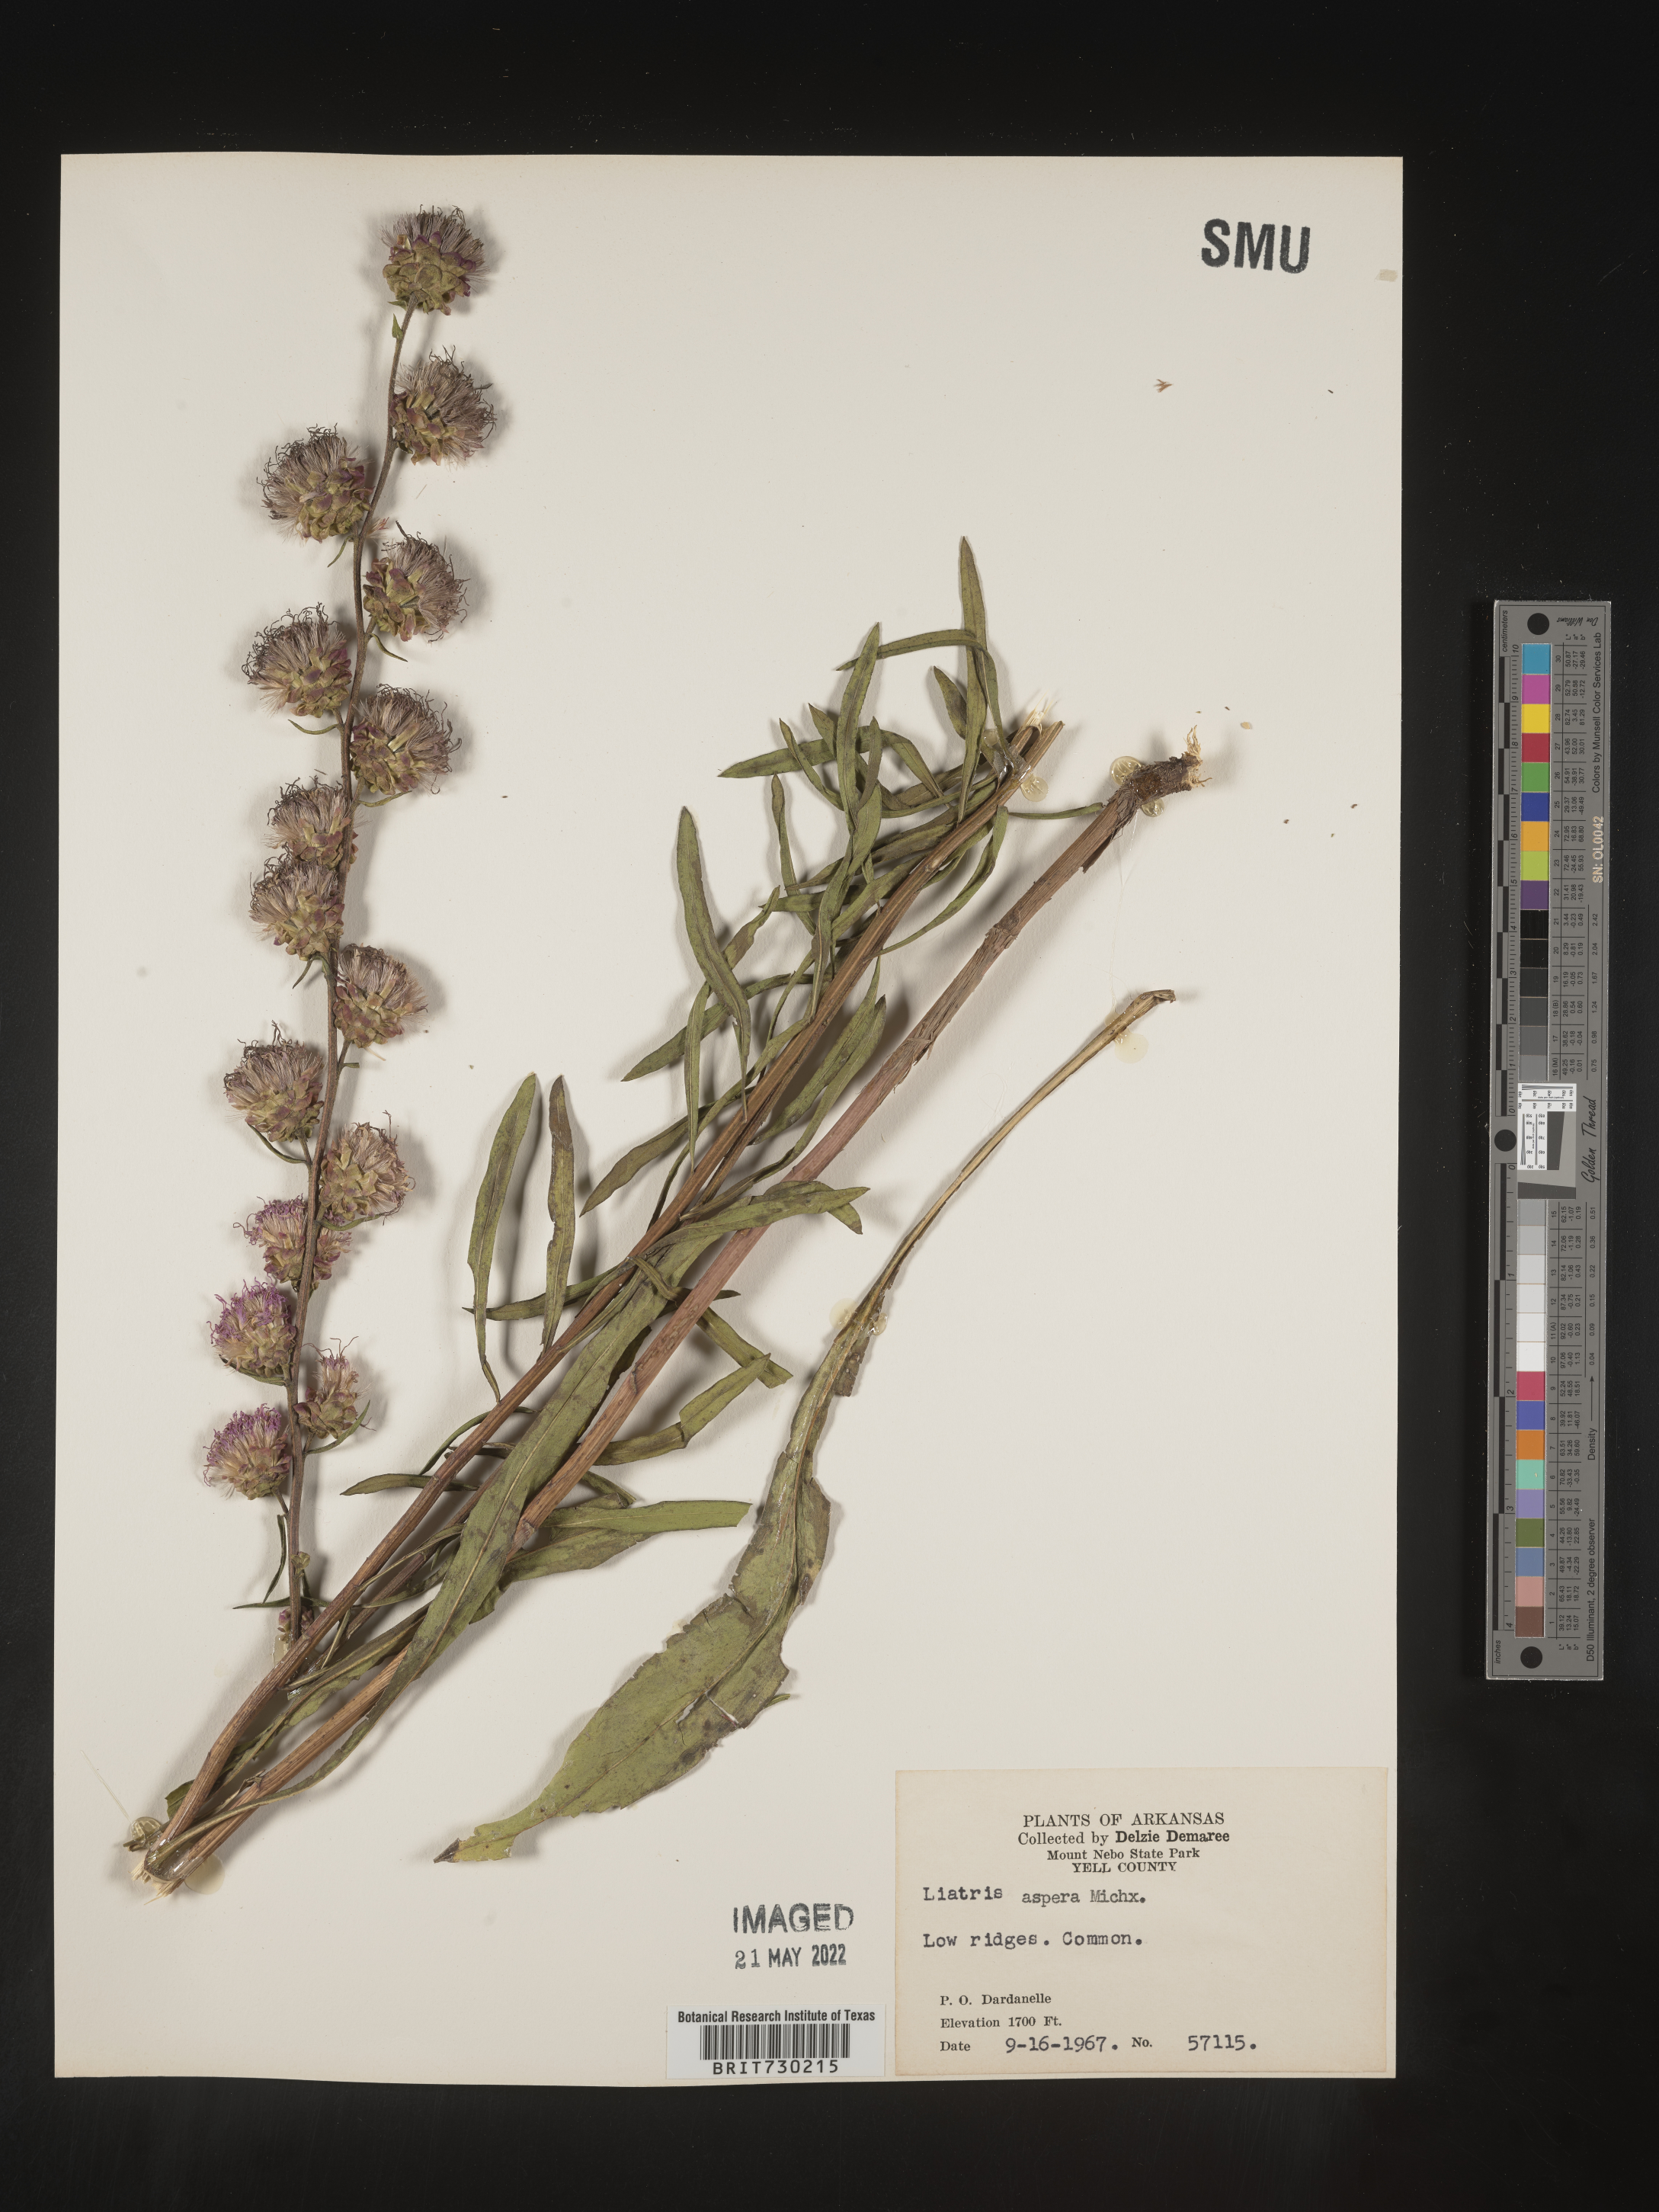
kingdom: Plantae
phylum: Tracheophyta
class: Magnoliopsida
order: Asterales
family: Asteraceae
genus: Liatris
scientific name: Liatris aspera
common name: Lacerate blazing-star
